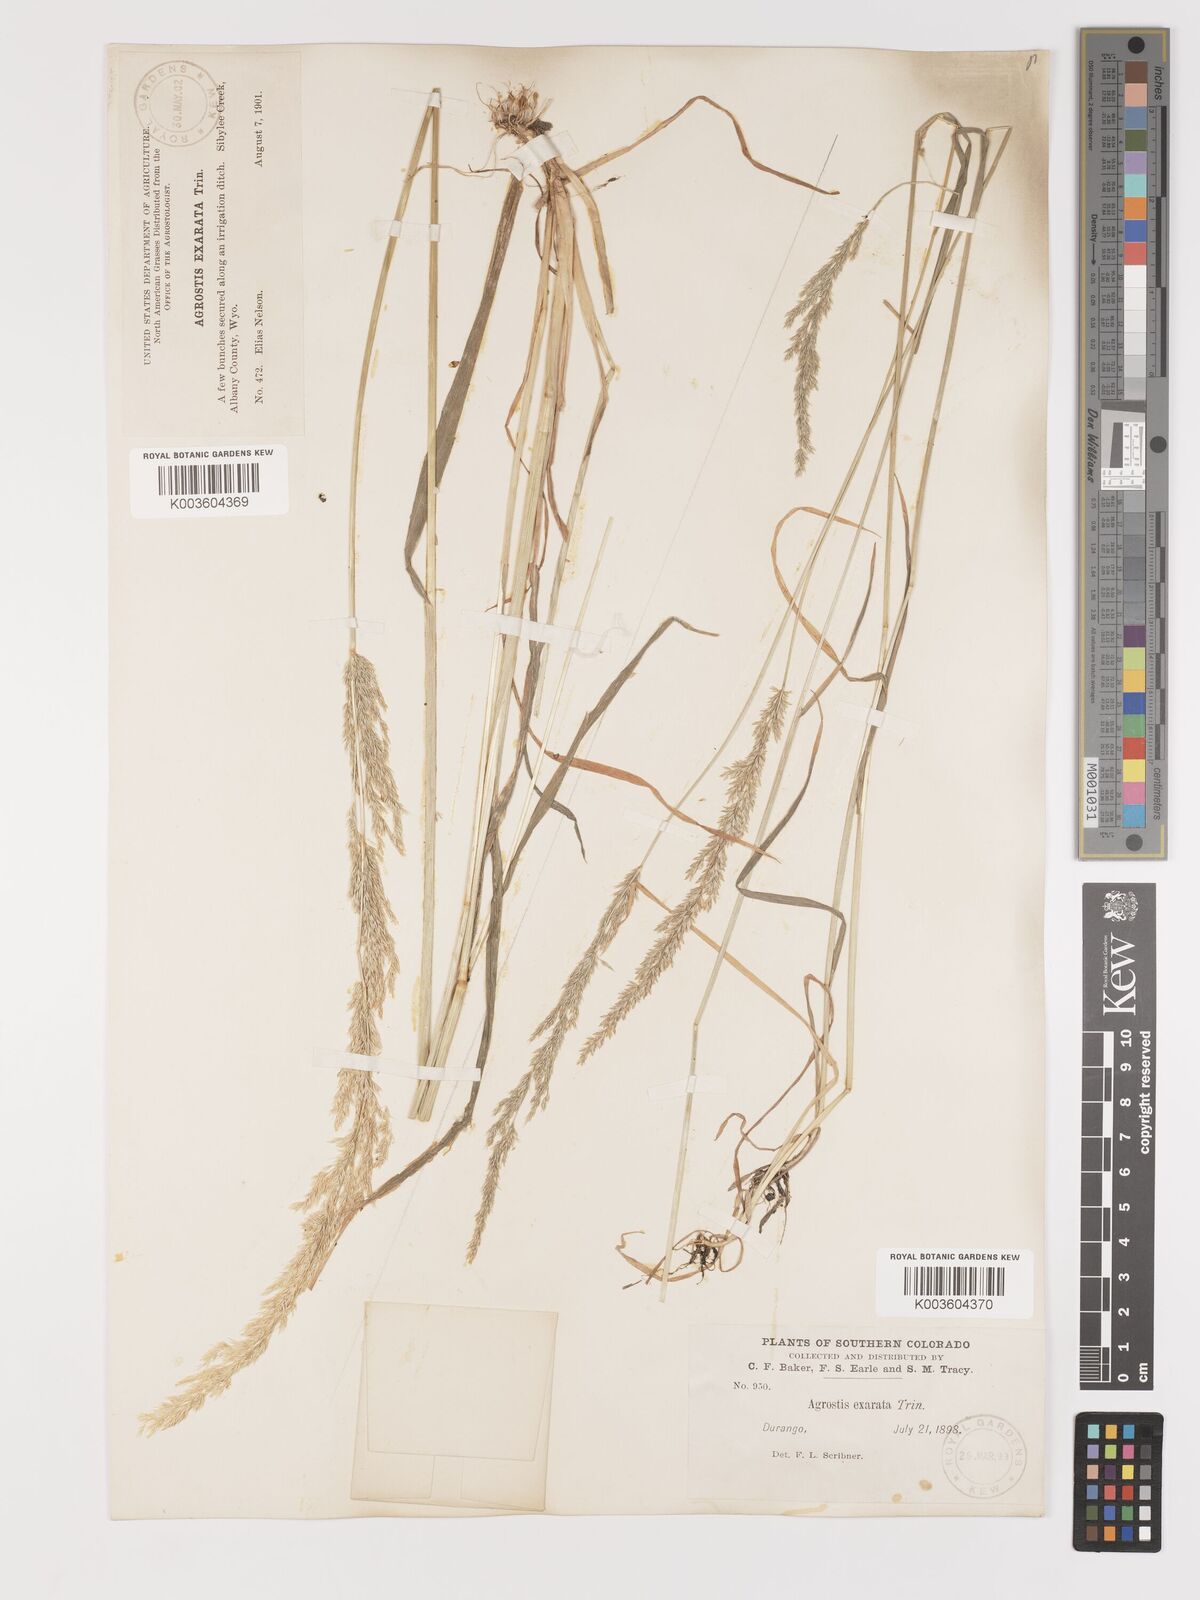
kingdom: Plantae
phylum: Tracheophyta
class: Liliopsida
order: Poales
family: Poaceae
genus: Agrostis
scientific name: Agrostis exarata
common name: Spike bent
